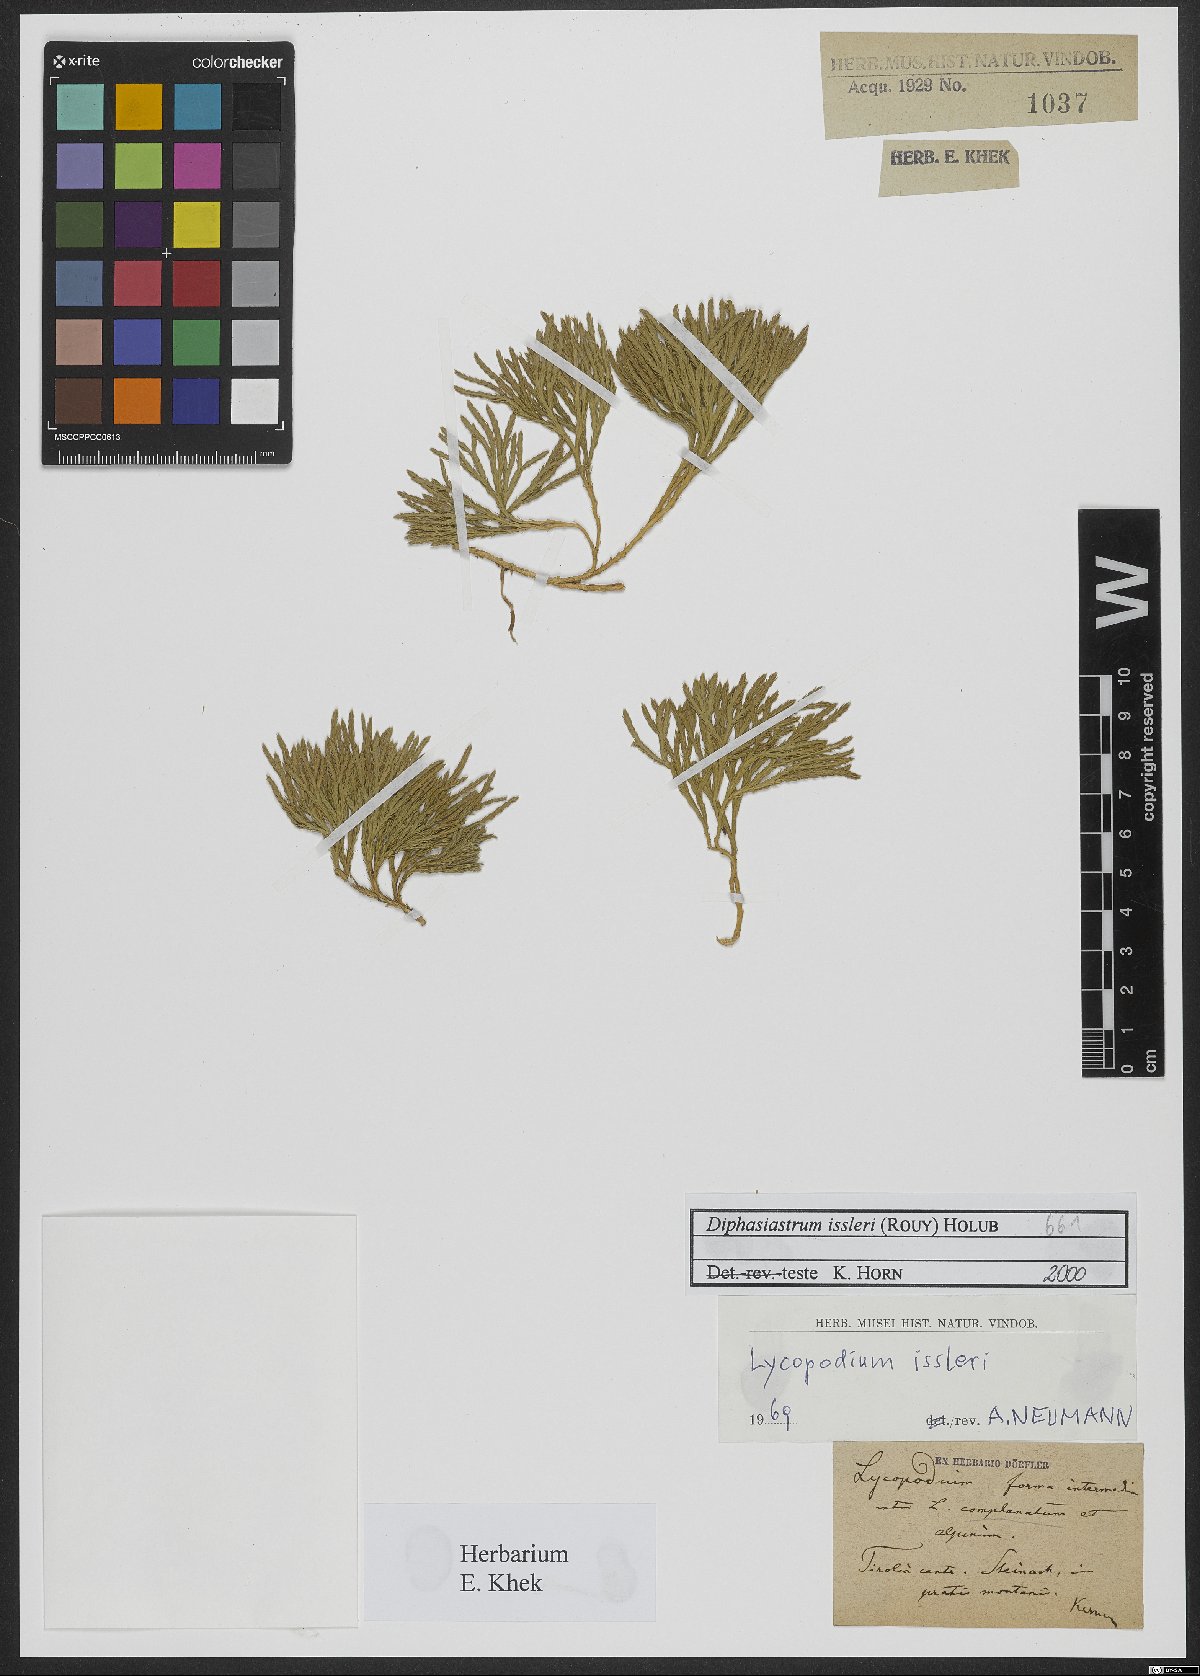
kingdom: Plantae
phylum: Tracheophyta
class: Lycopodiopsida
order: Lycopodiales
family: Lycopodiaceae
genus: Diphasiastrum
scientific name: Diphasiastrum issleri
